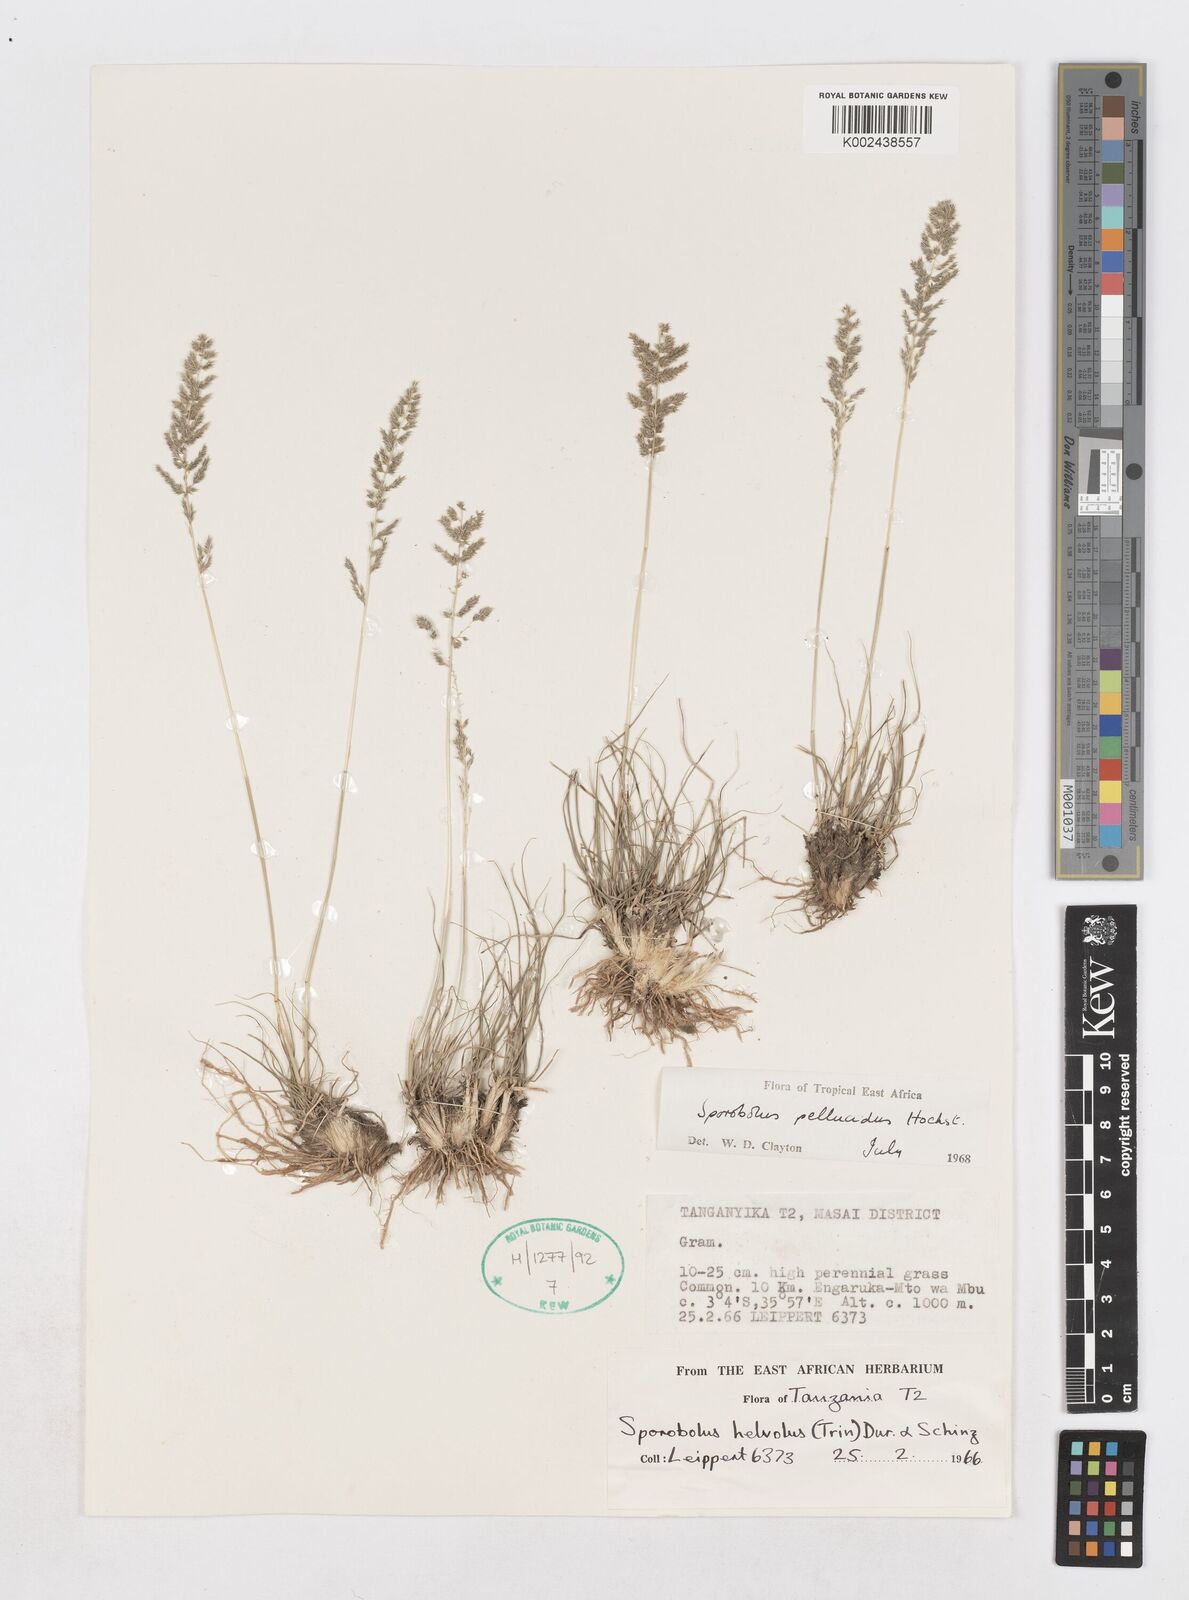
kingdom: Plantae
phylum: Tracheophyta
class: Liliopsida
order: Poales
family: Poaceae
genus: Sporobolus
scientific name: Sporobolus pellucidus
